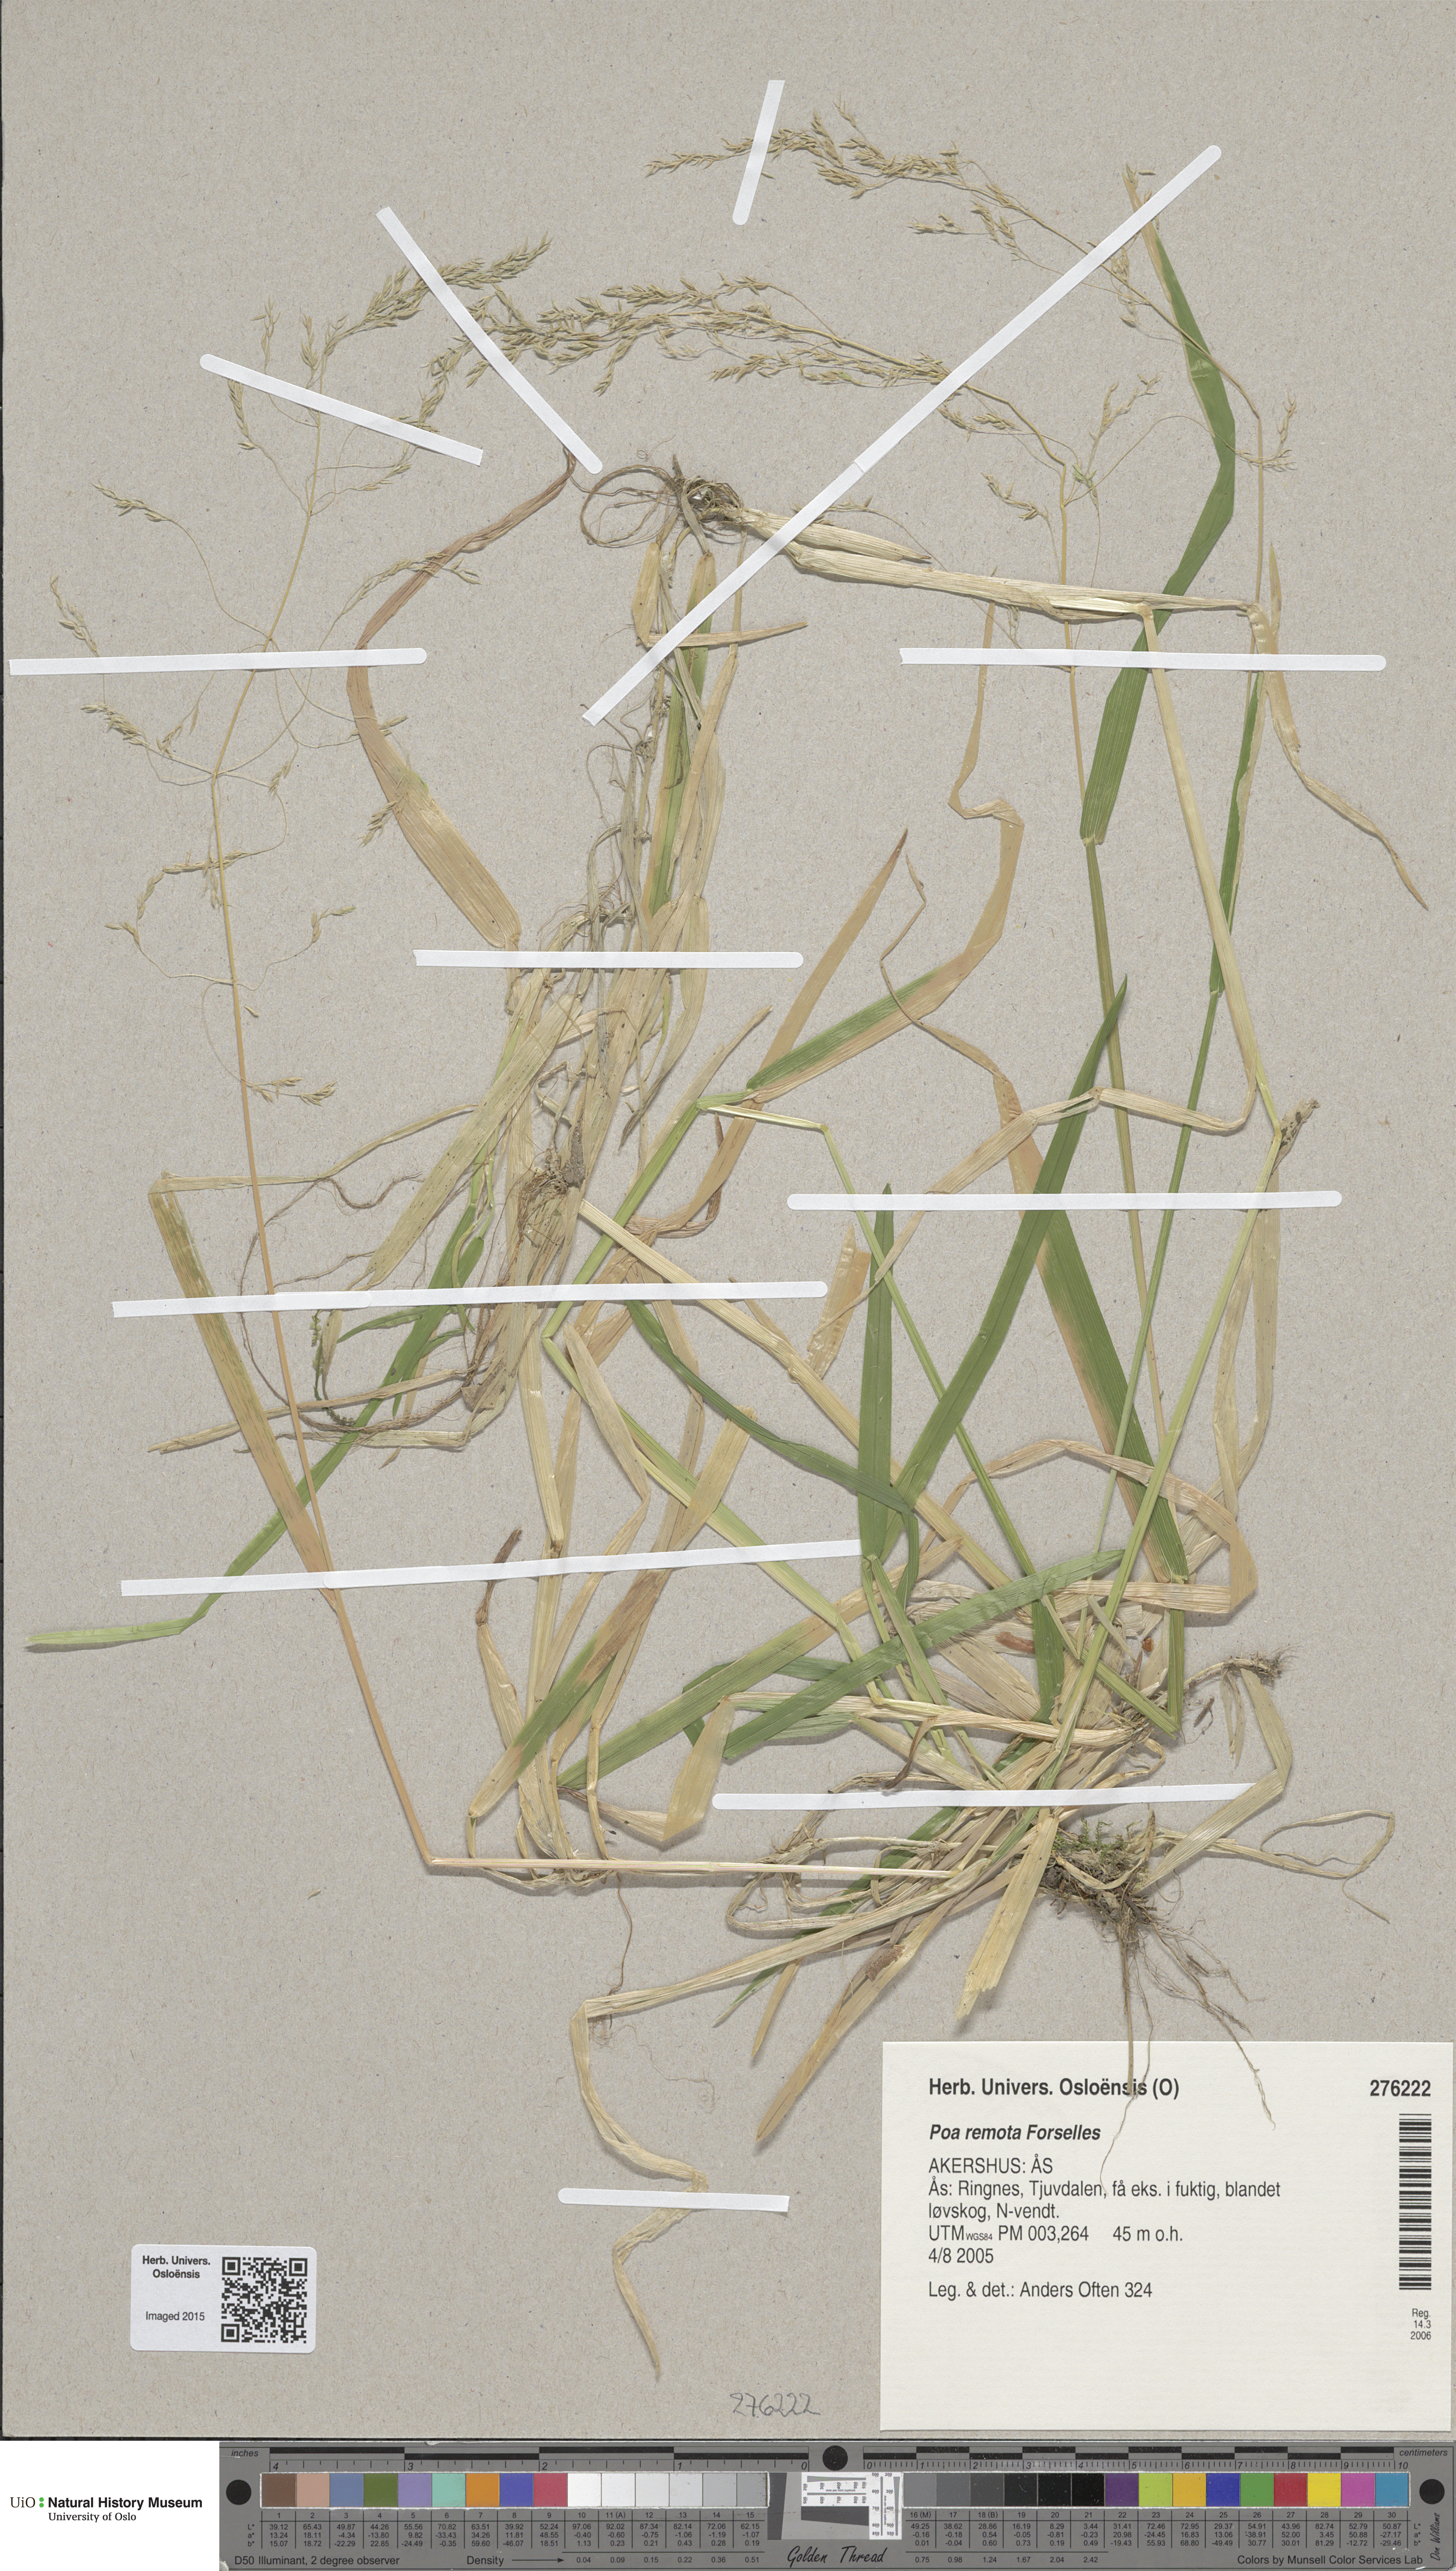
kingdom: Plantae
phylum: Tracheophyta
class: Liliopsida
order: Poales
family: Poaceae
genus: Poa
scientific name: Poa remota
